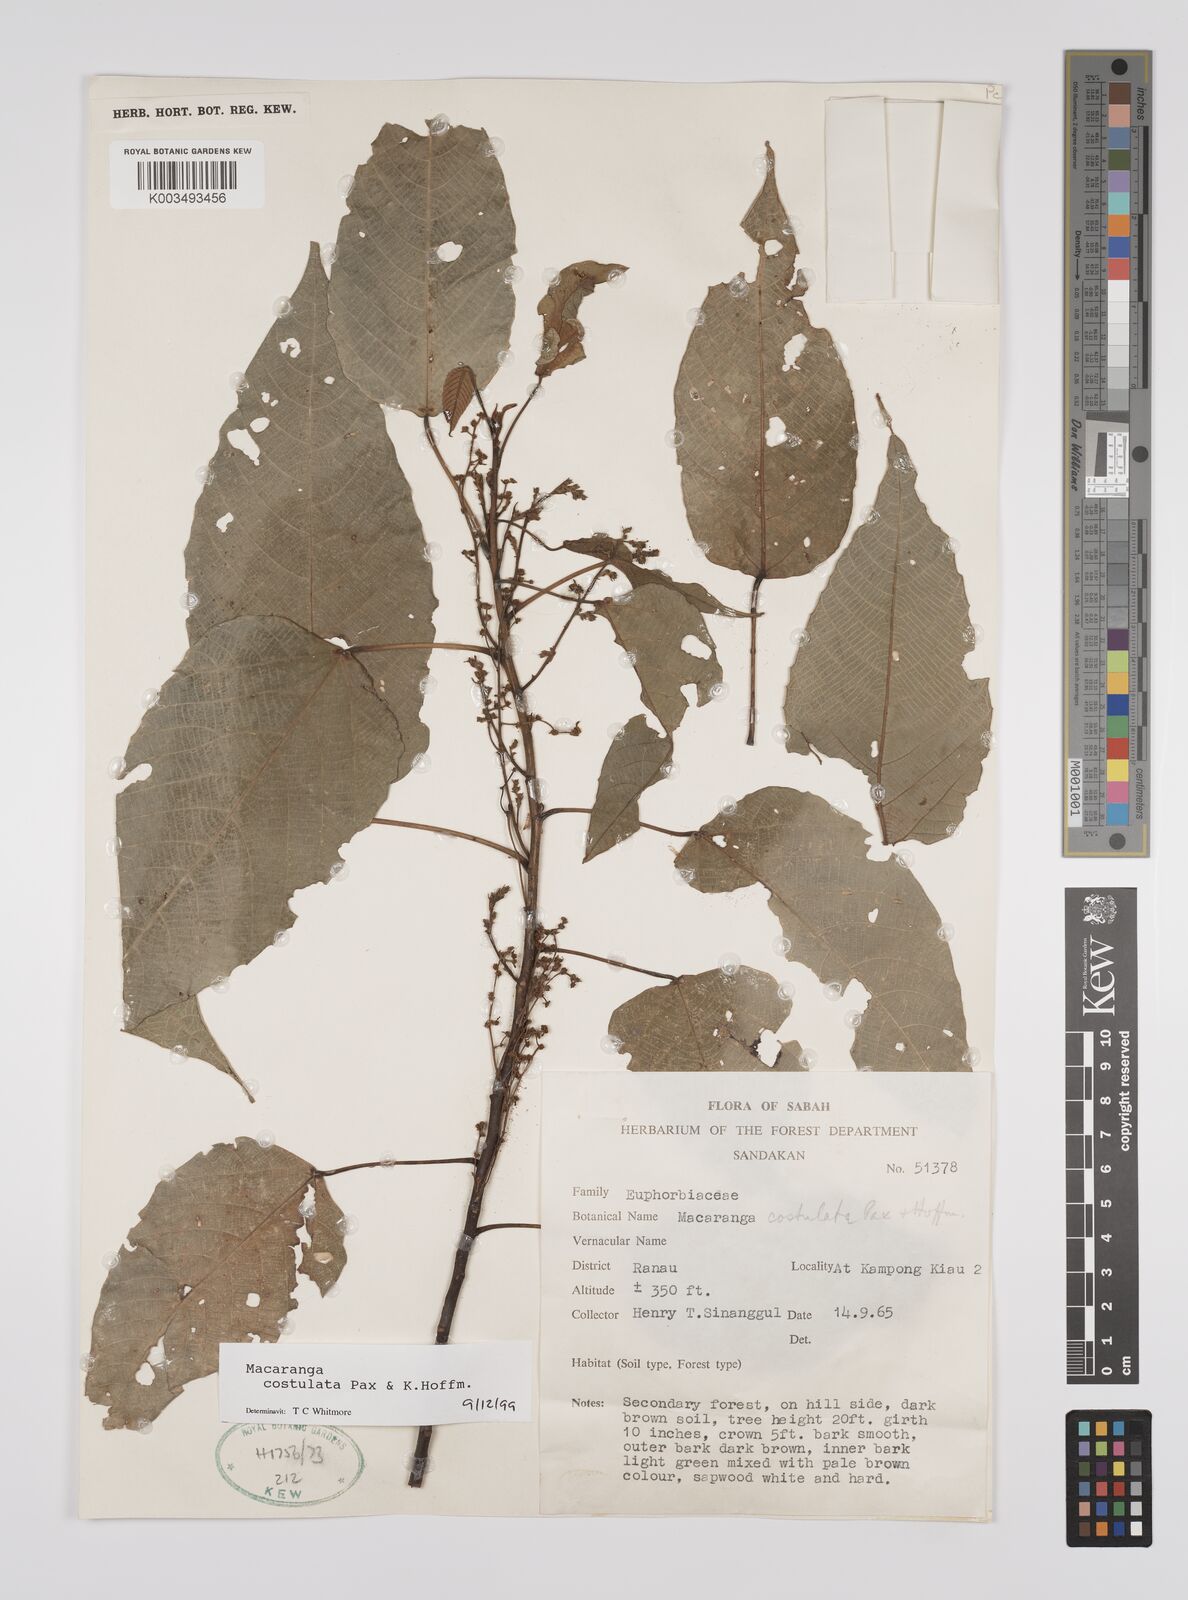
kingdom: Plantae
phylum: Tracheophyta
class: Magnoliopsida
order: Malpighiales
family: Euphorbiaceae
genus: Macaranga
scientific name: Macaranga costulata
